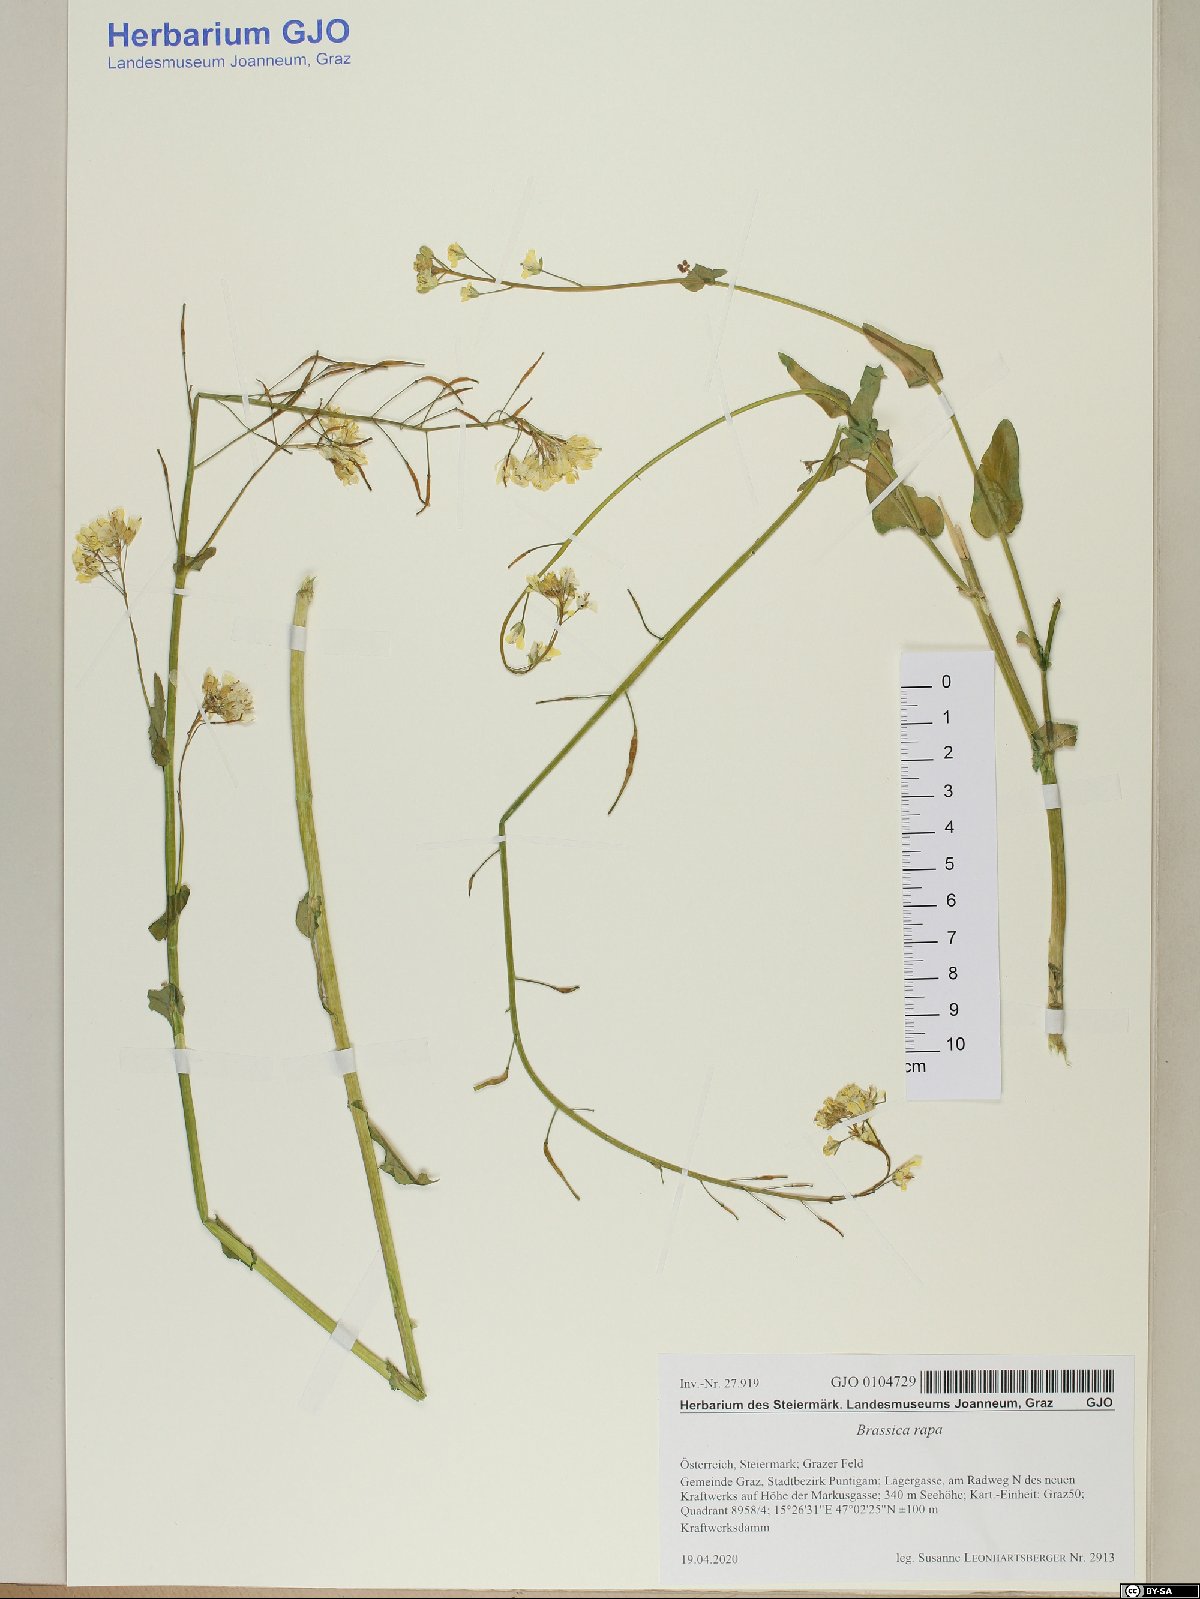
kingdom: Plantae
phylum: Tracheophyta
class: Magnoliopsida
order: Brassicales
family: Brassicaceae
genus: Brassica
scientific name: Brassica rapa
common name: Field mustard
